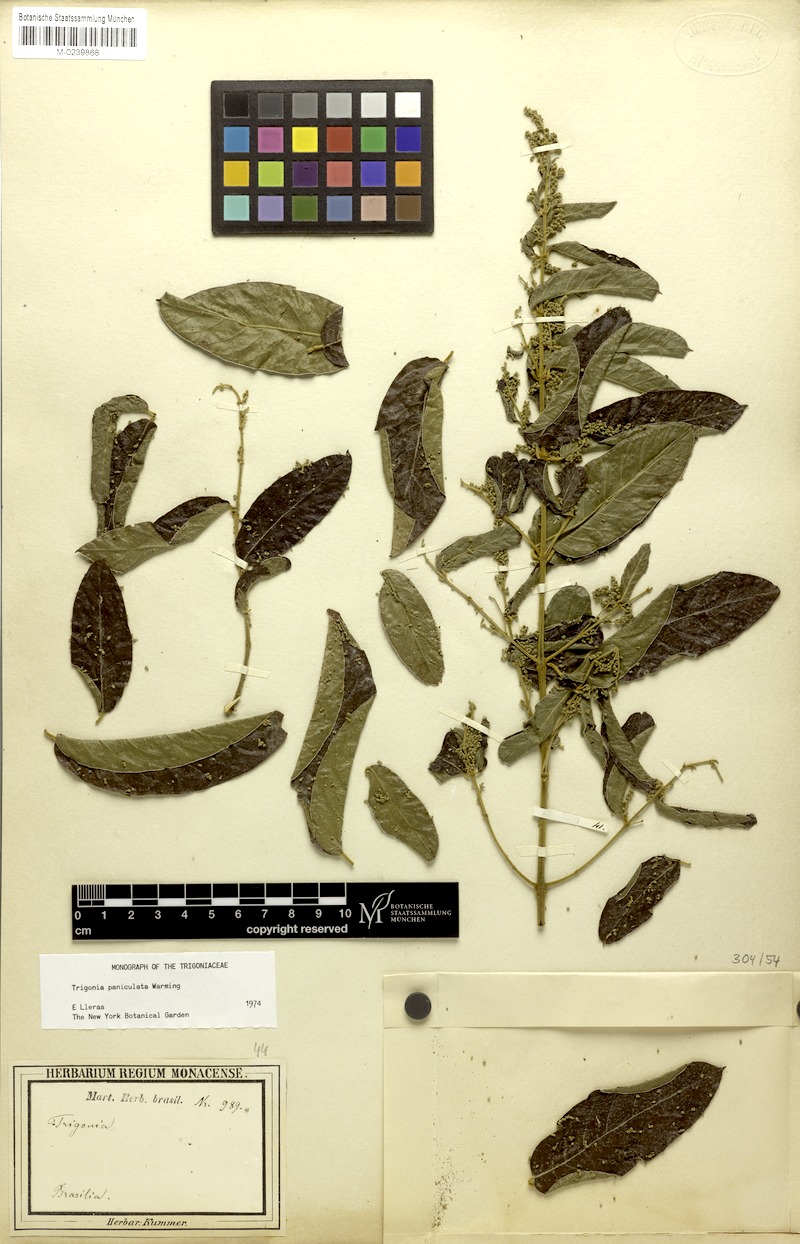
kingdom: Plantae
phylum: Tracheophyta
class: Magnoliopsida
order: Malpighiales
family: Trigoniaceae
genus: Trigonia
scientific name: Trigonia paniculata
